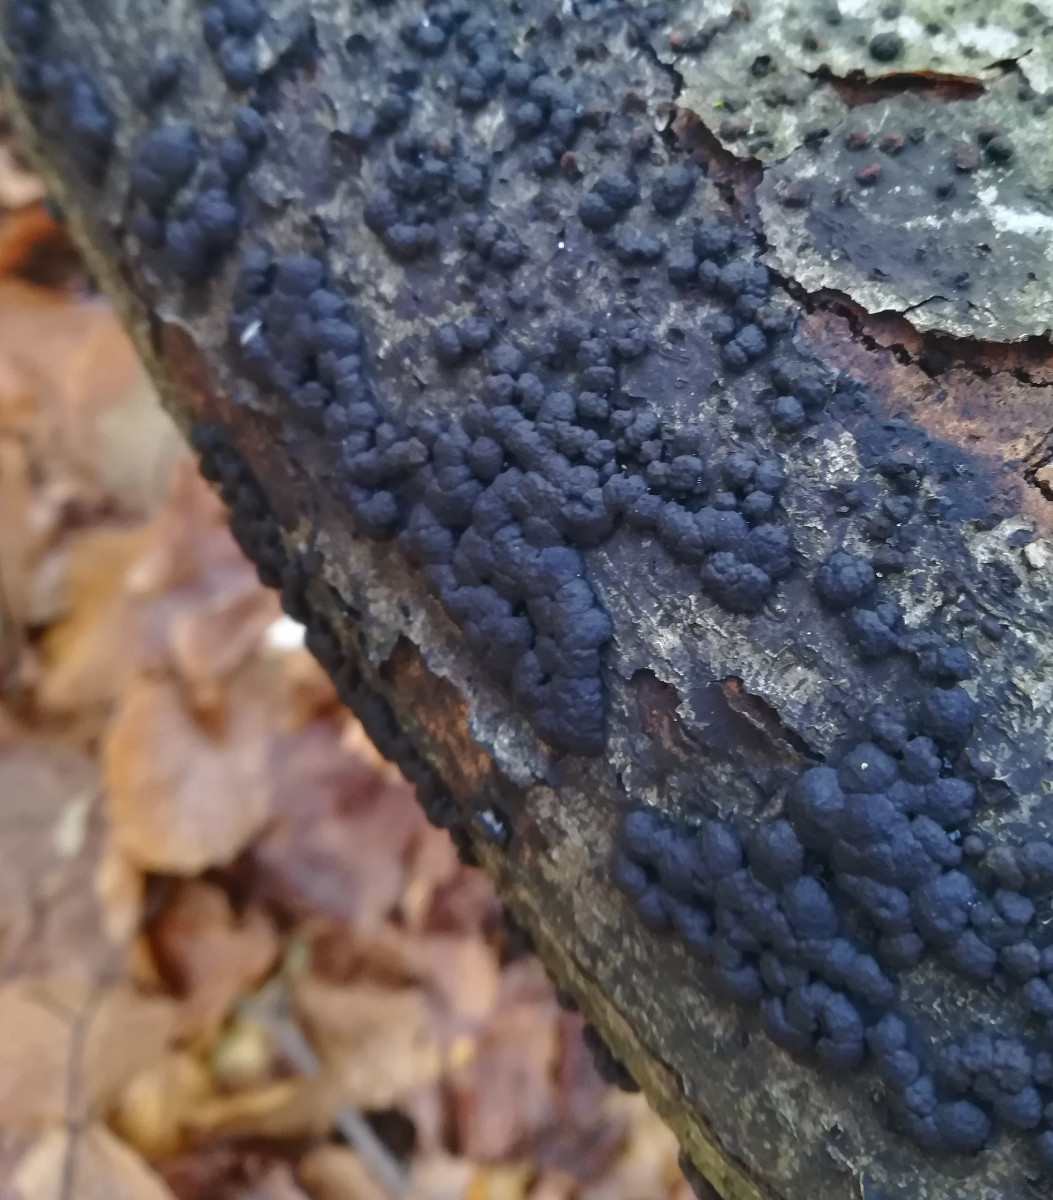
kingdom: Fungi
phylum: Ascomycota
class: Sordariomycetes
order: Xylariales
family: Hypoxylaceae
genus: Jackrogersella
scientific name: Jackrogersella cohaerens
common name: sammenflydende kulbær
